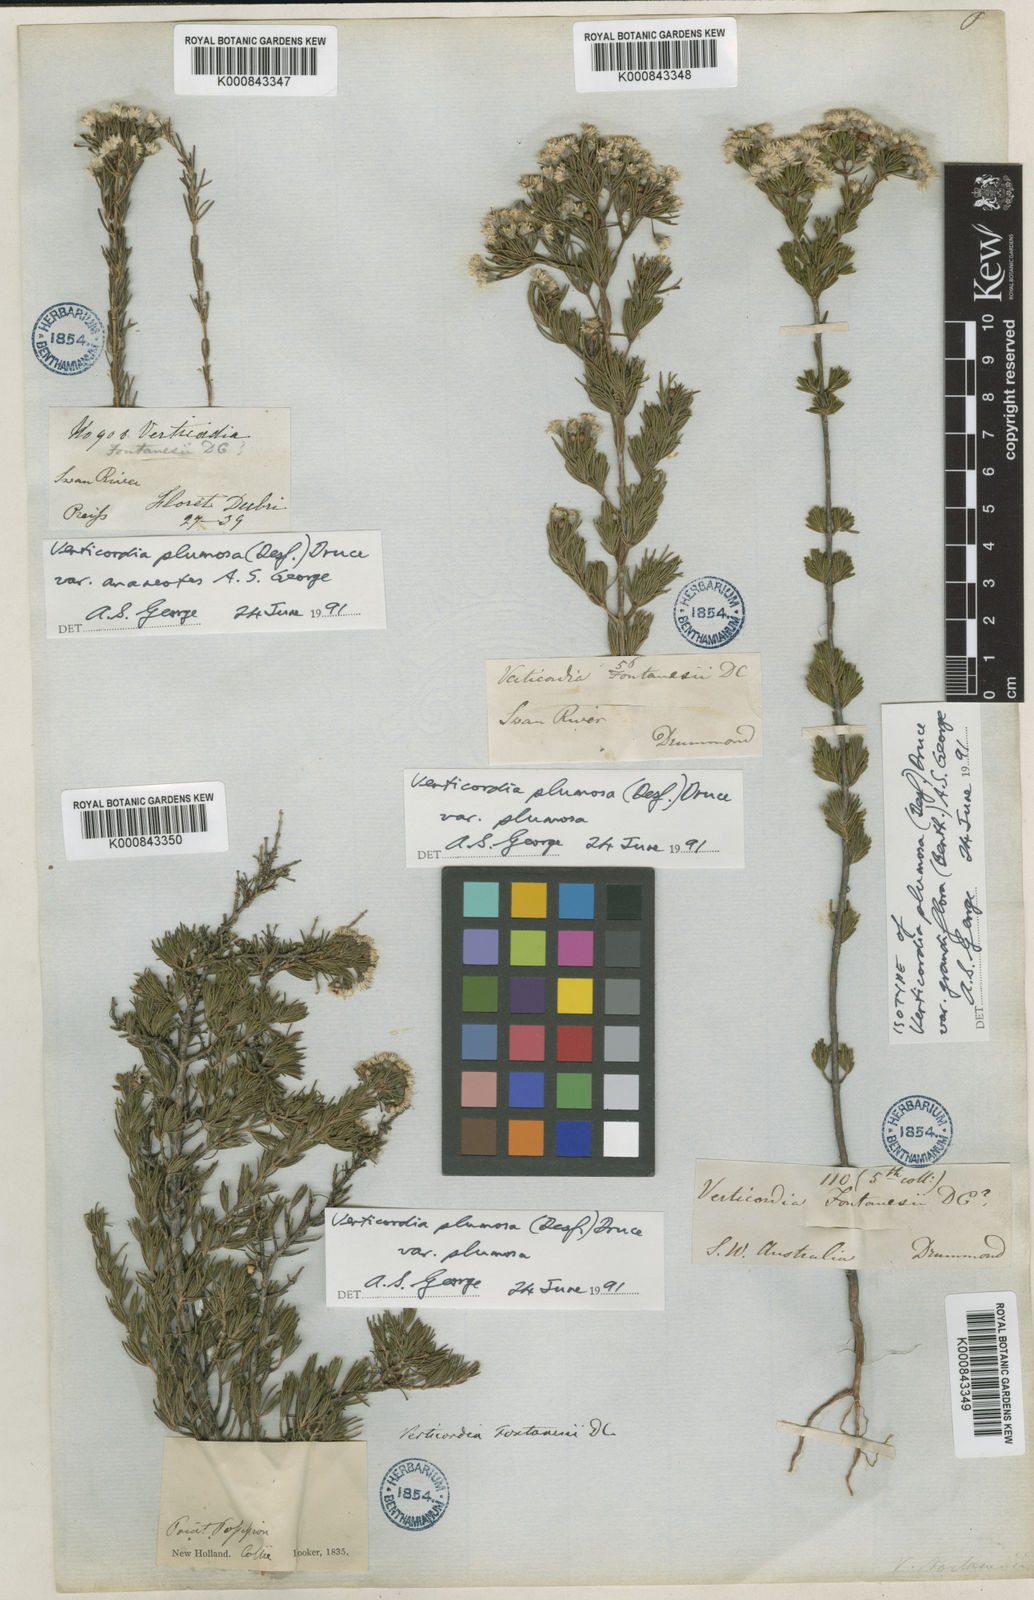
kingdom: Plantae
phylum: Tracheophyta
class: Magnoliopsida
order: Myrtales
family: Myrtaceae
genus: Verticordia
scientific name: Verticordia plumosa
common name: Plume feather-flower
